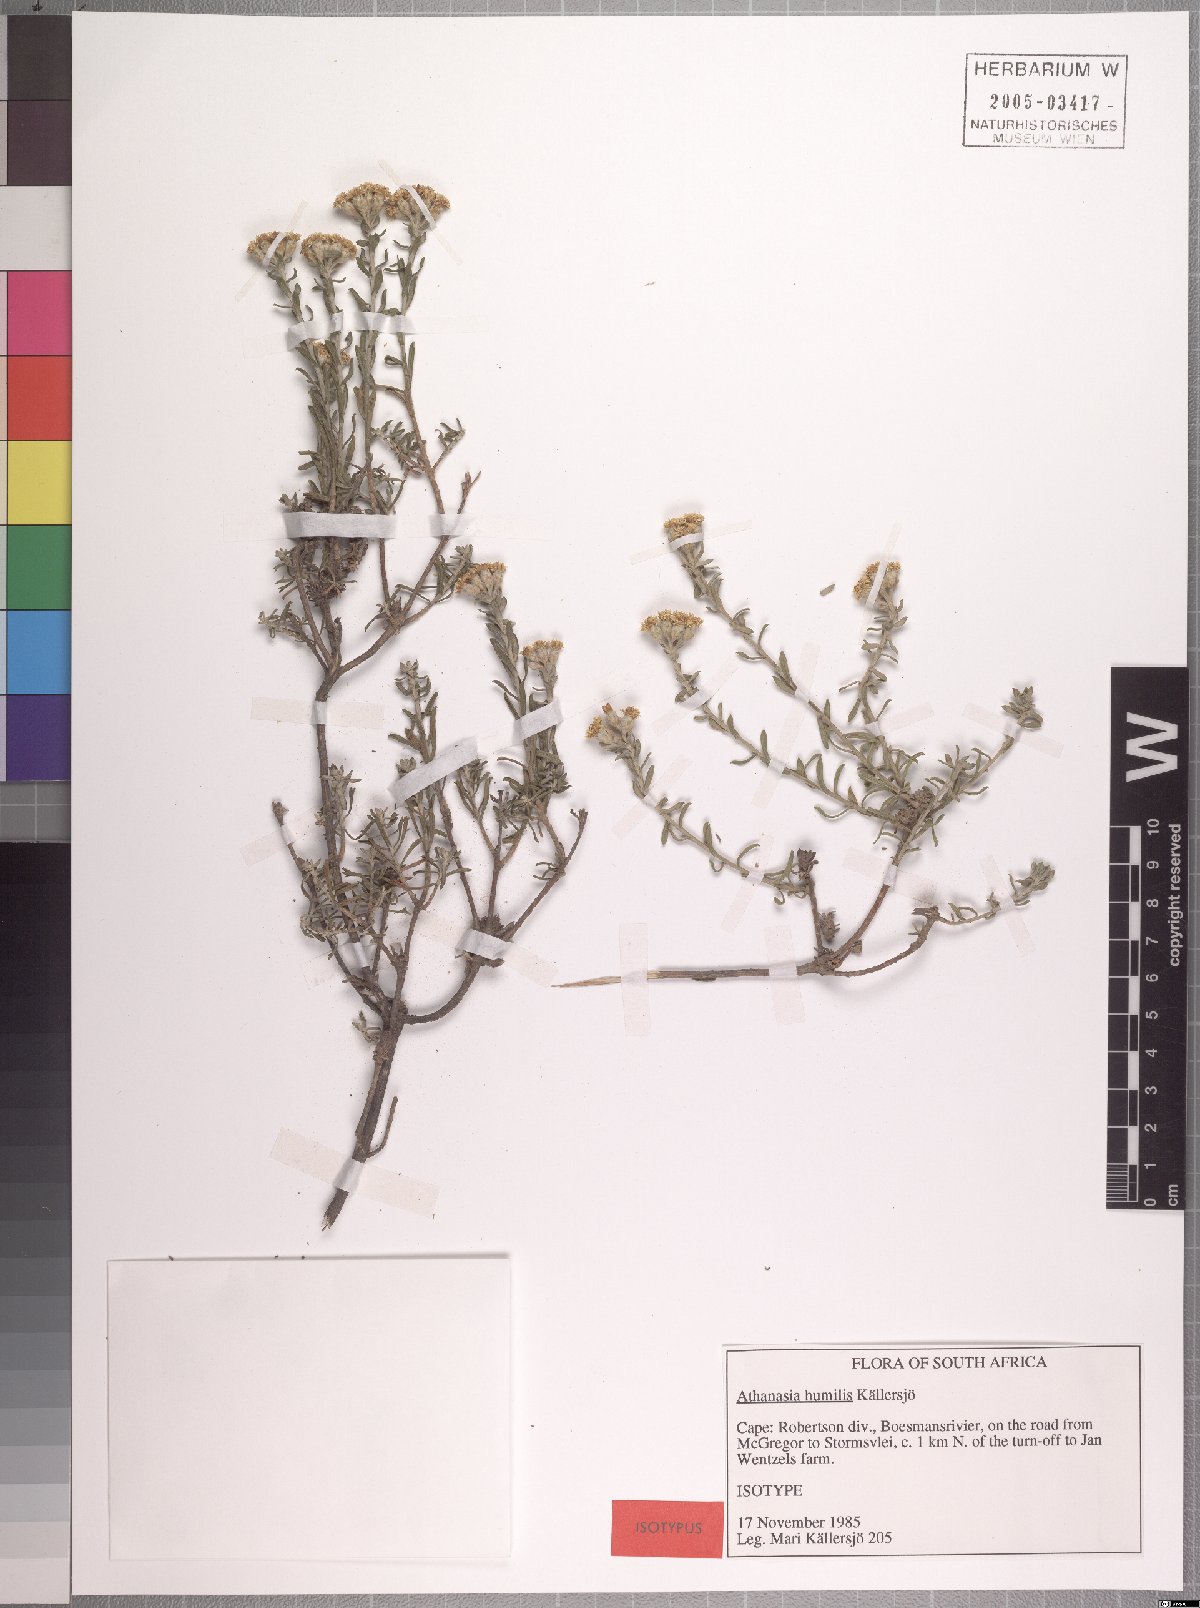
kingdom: Plantae
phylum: Tracheophyta
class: Magnoliopsida
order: Asterales
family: Asteraceae
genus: Athanasia
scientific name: Athanasia humilis
